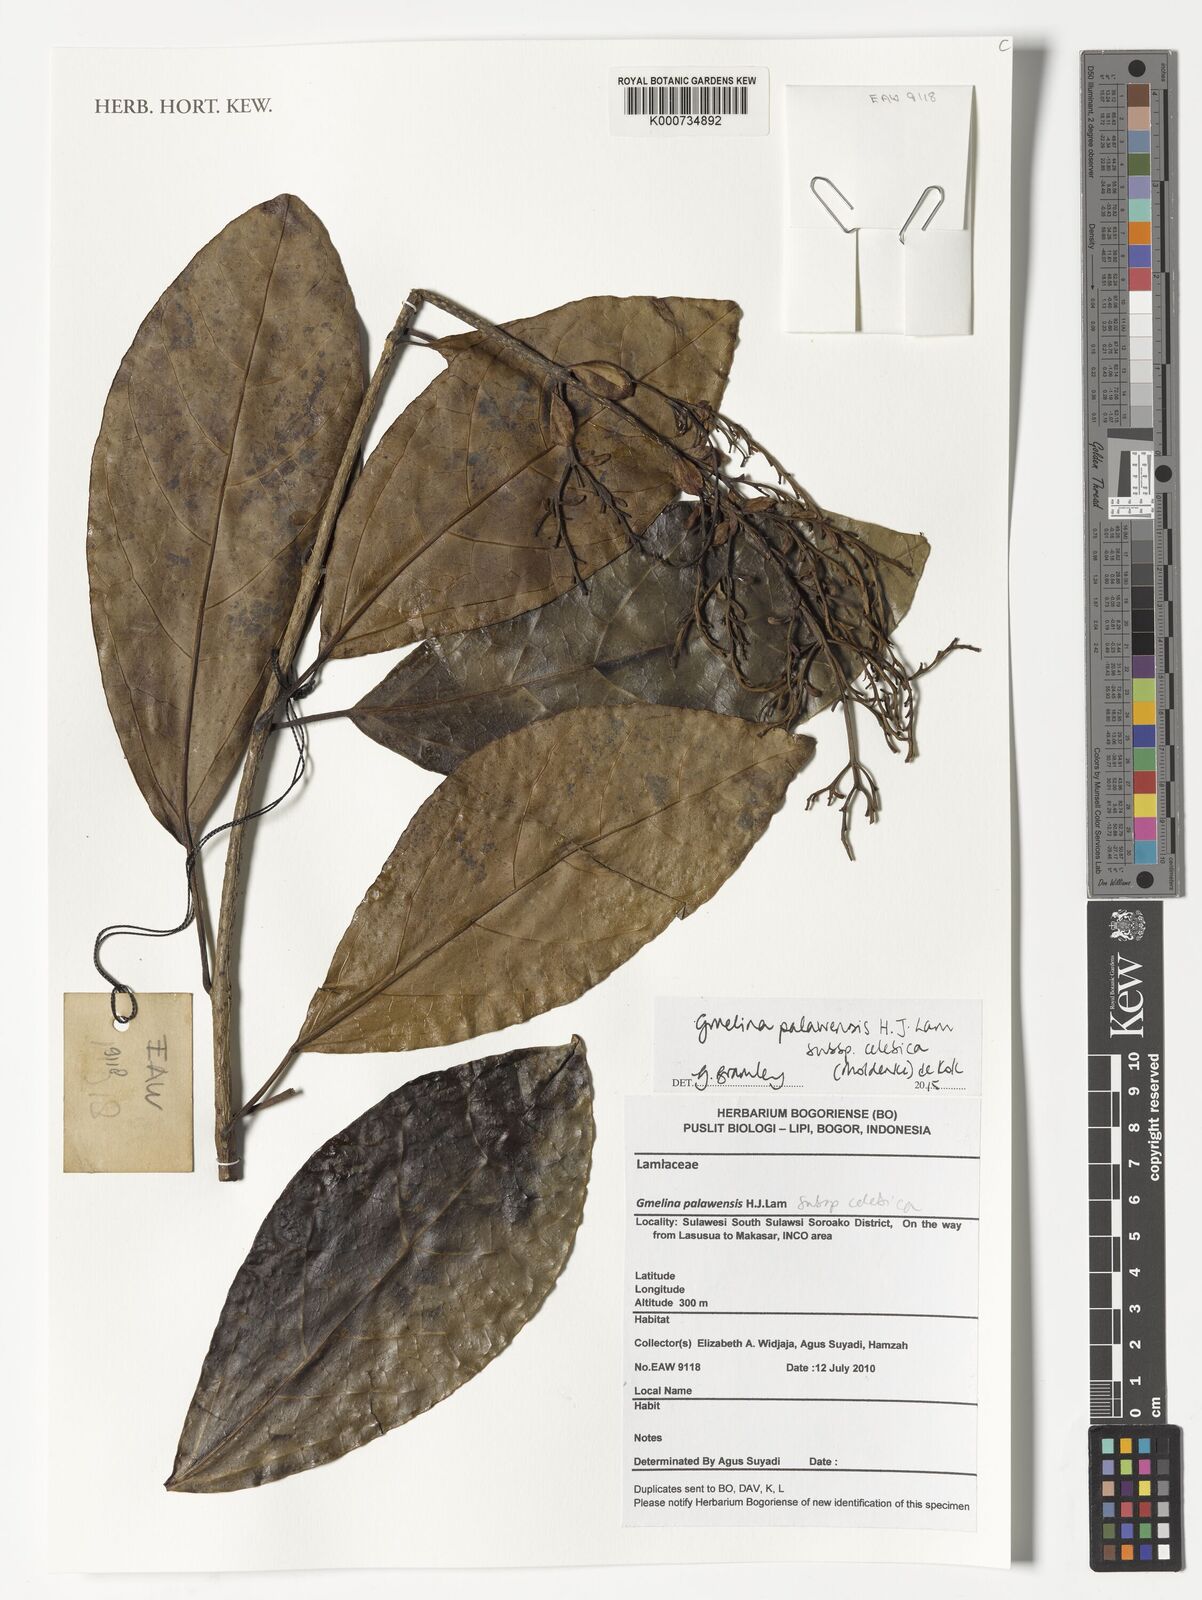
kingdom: Plantae
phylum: Tracheophyta
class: Magnoliopsida
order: Lamiales
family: Lamiaceae
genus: Gmelina
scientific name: Gmelina palawensis
